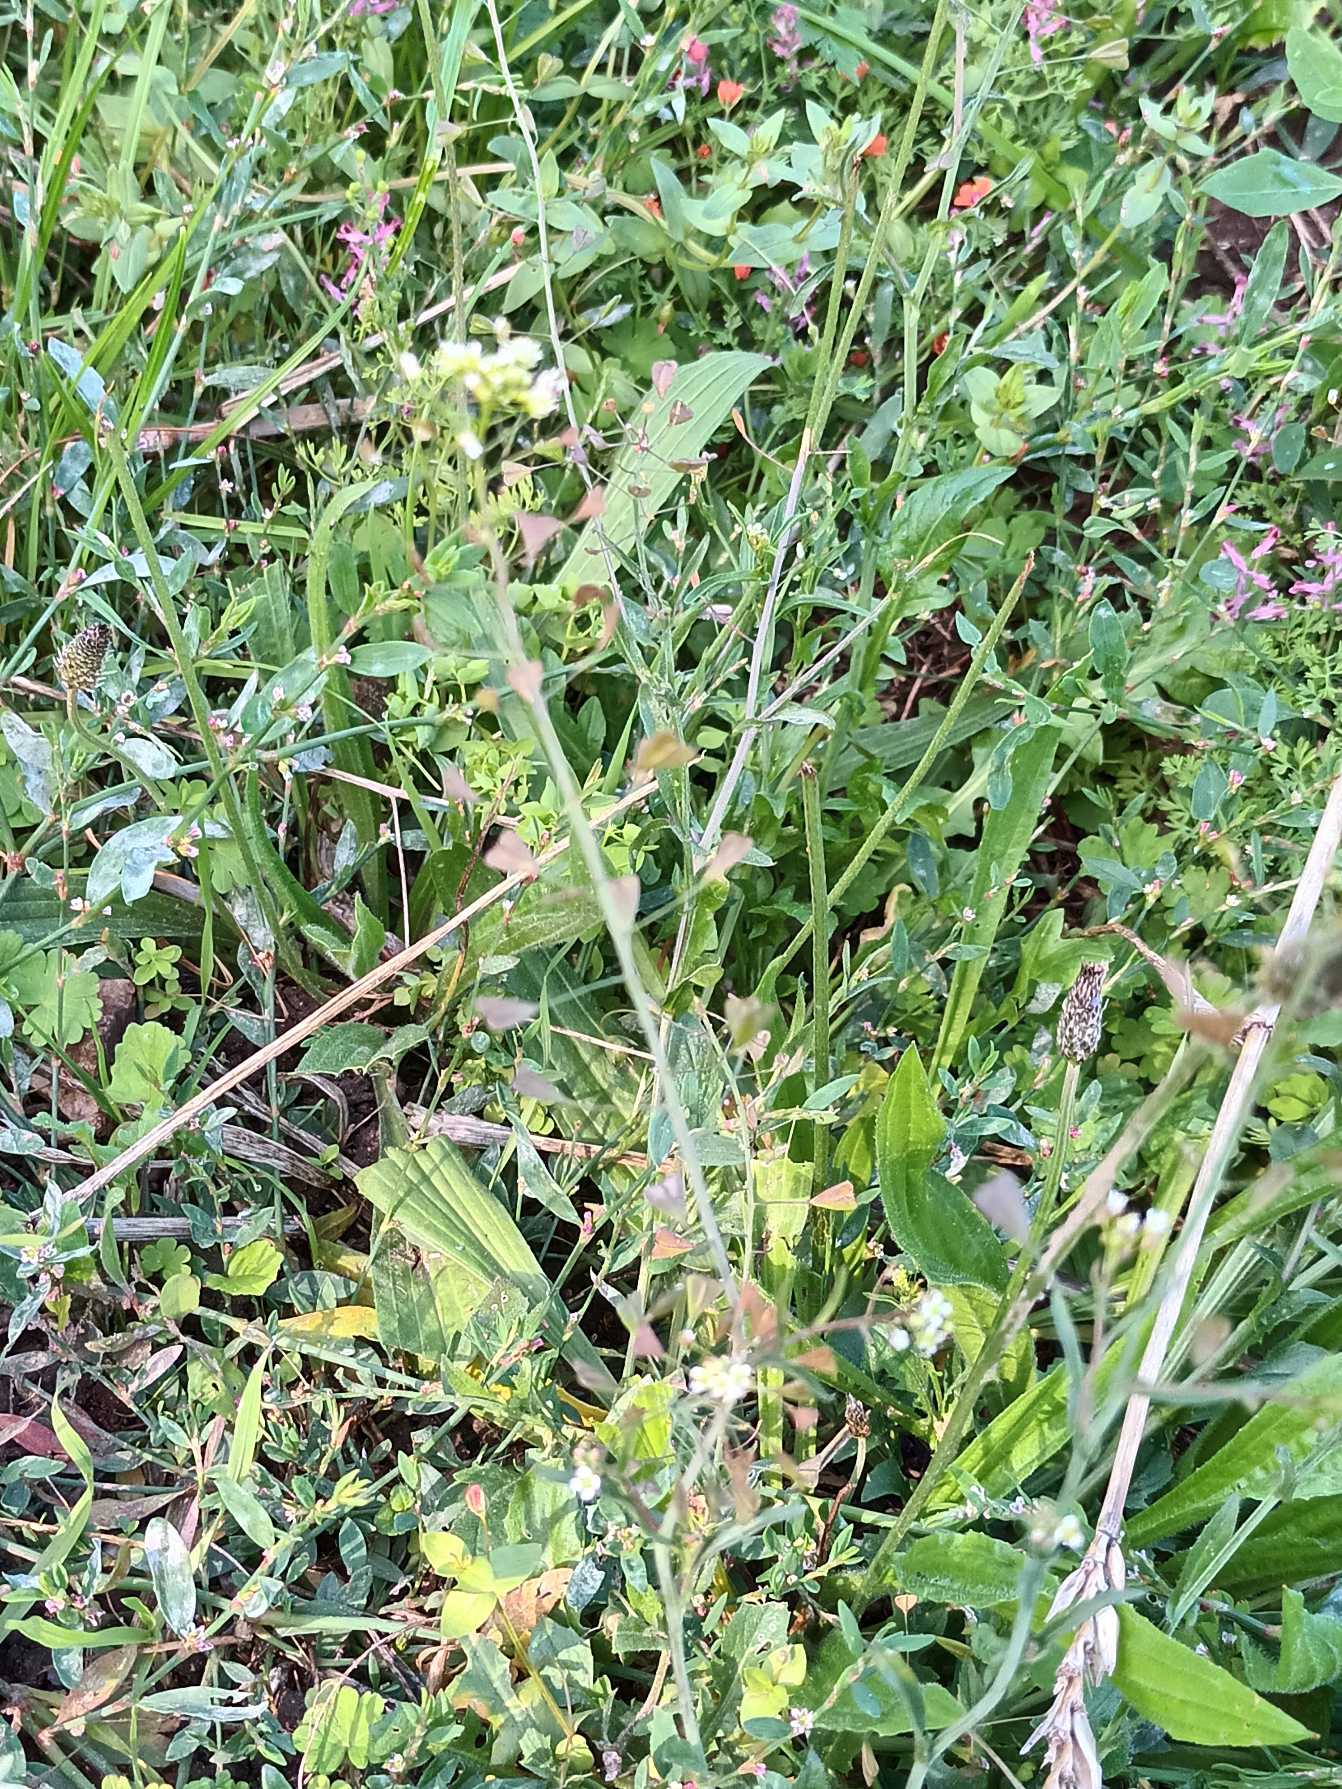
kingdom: Plantae
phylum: Tracheophyta
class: Magnoliopsida
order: Brassicales
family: Brassicaceae
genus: Capsella
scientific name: Capsella bursa-pastoris
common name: Hyrdetaske
